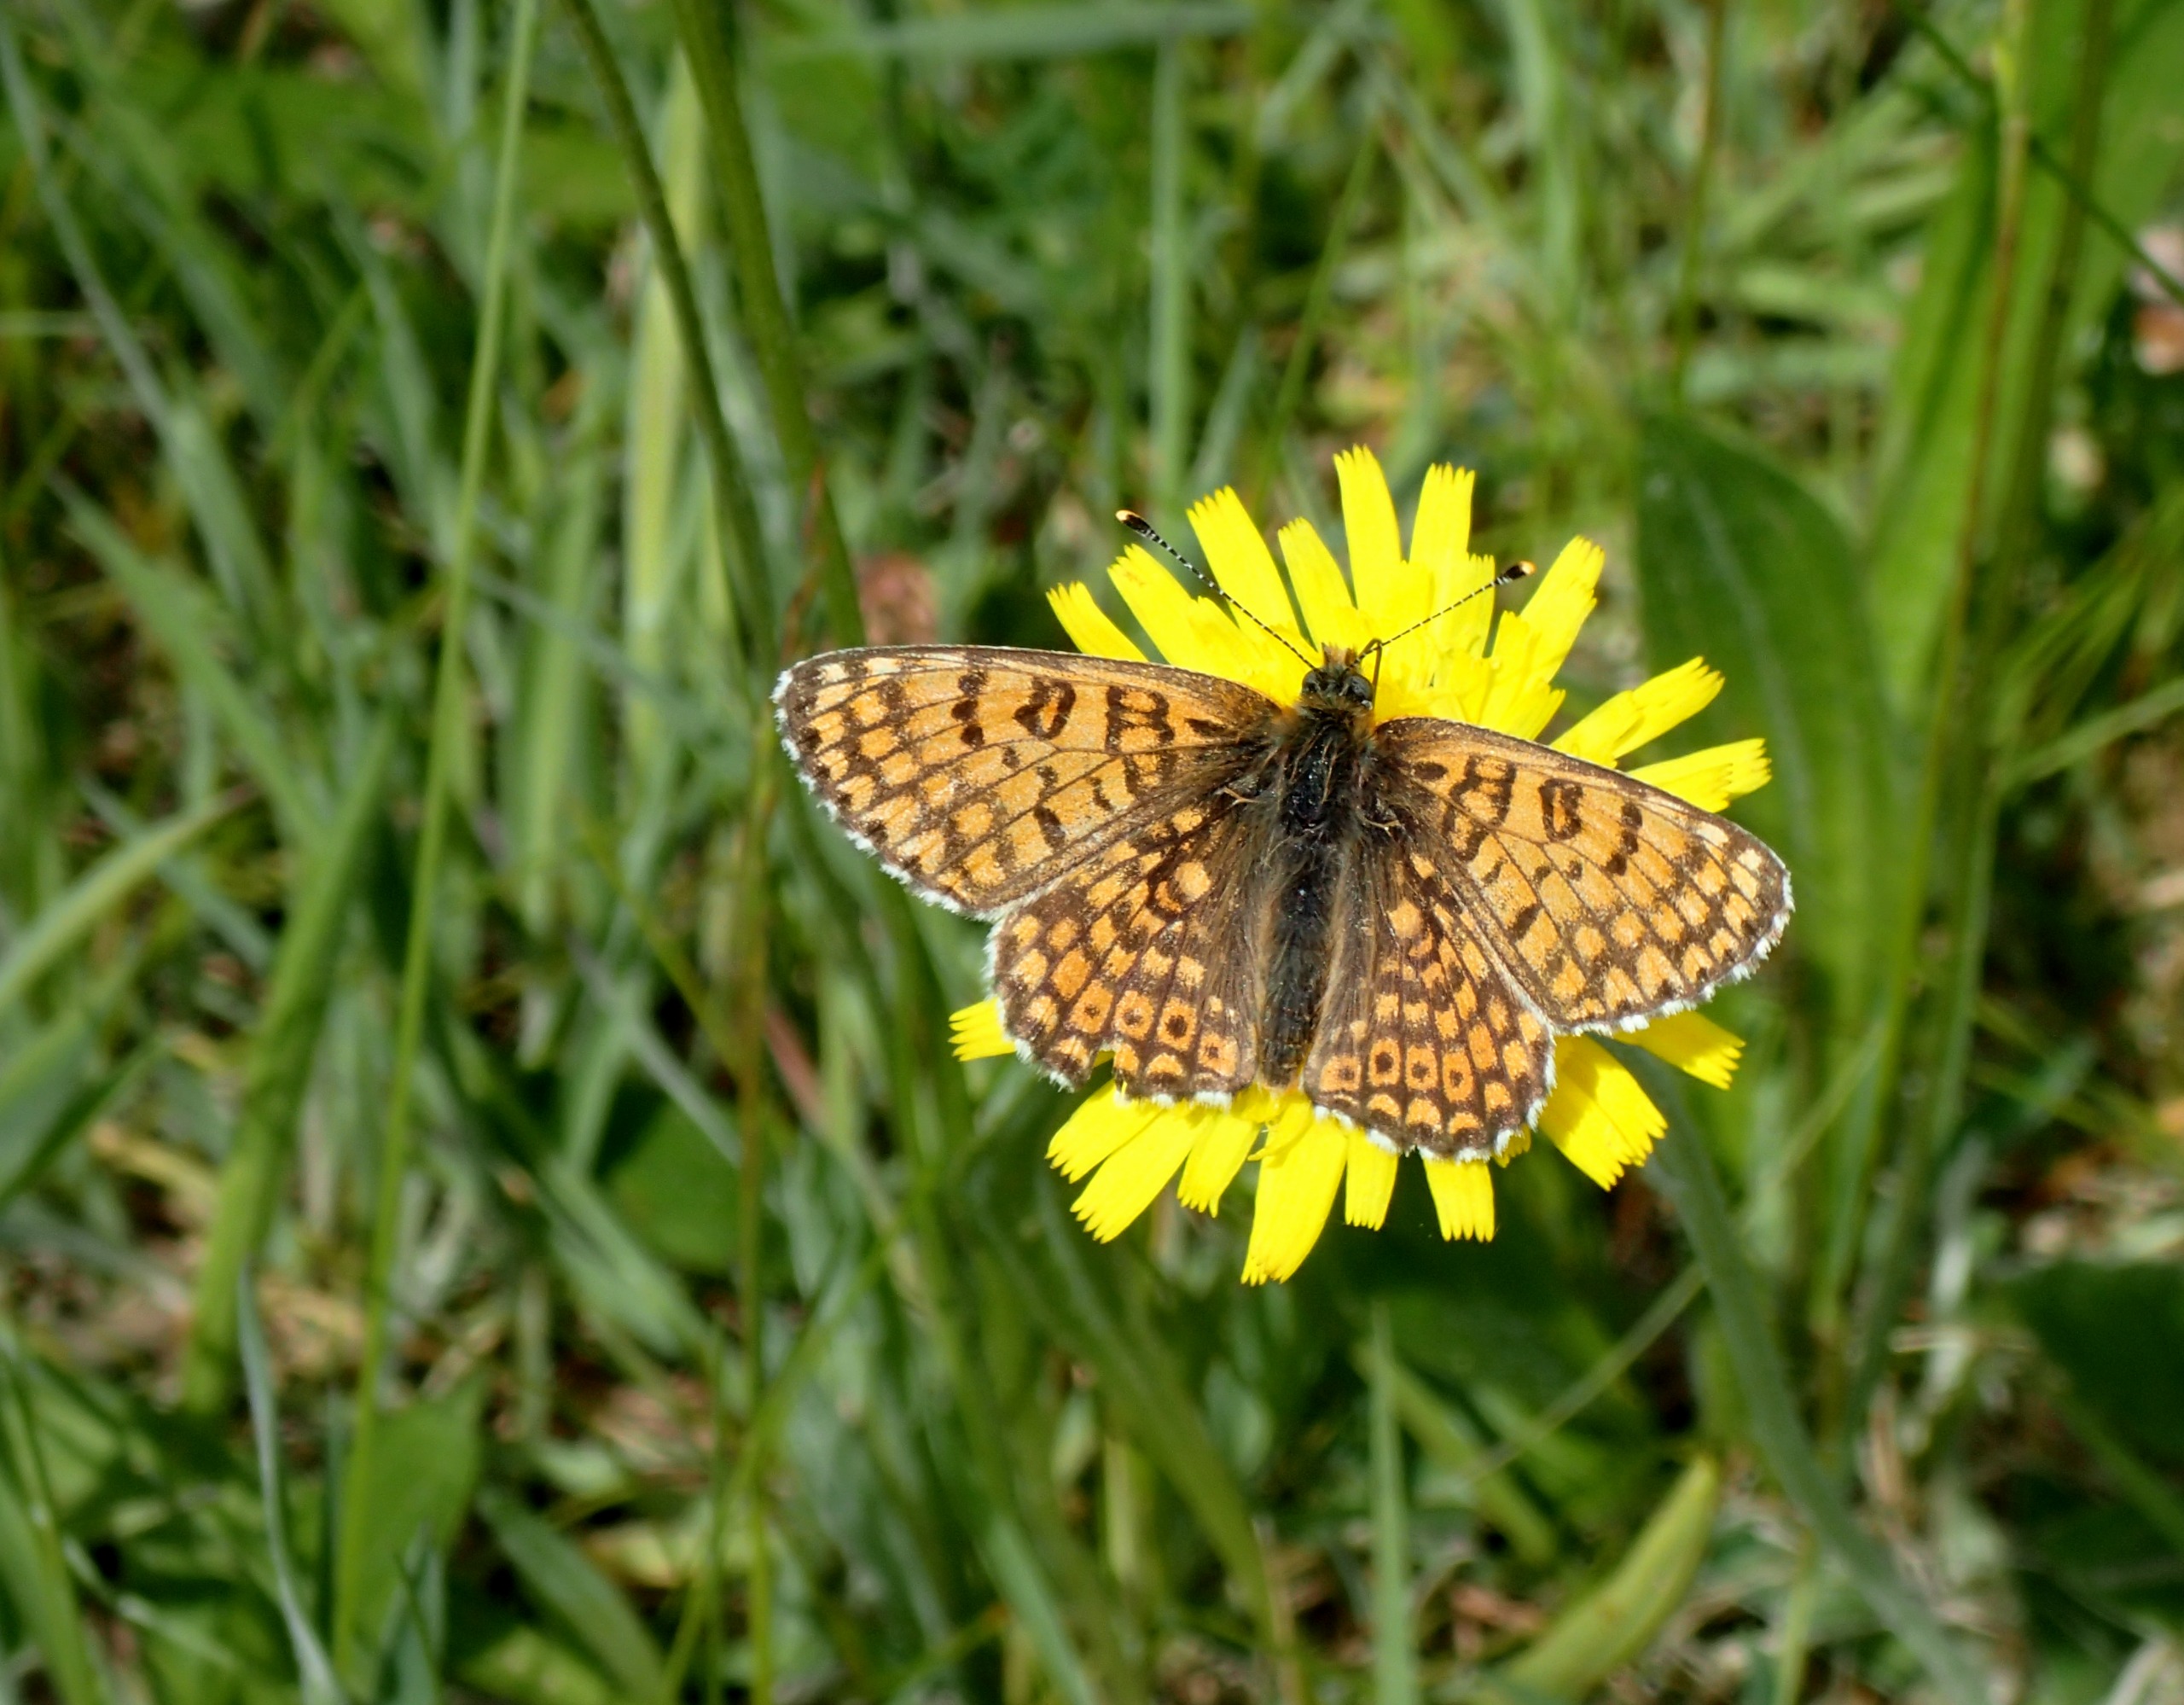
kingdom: Animalia
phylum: Arthropoda
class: Insecta
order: Lepidoptera
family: Nymphalidae
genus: Melitaea
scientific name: Melitaea cinxia
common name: Okkergul pletvinge
